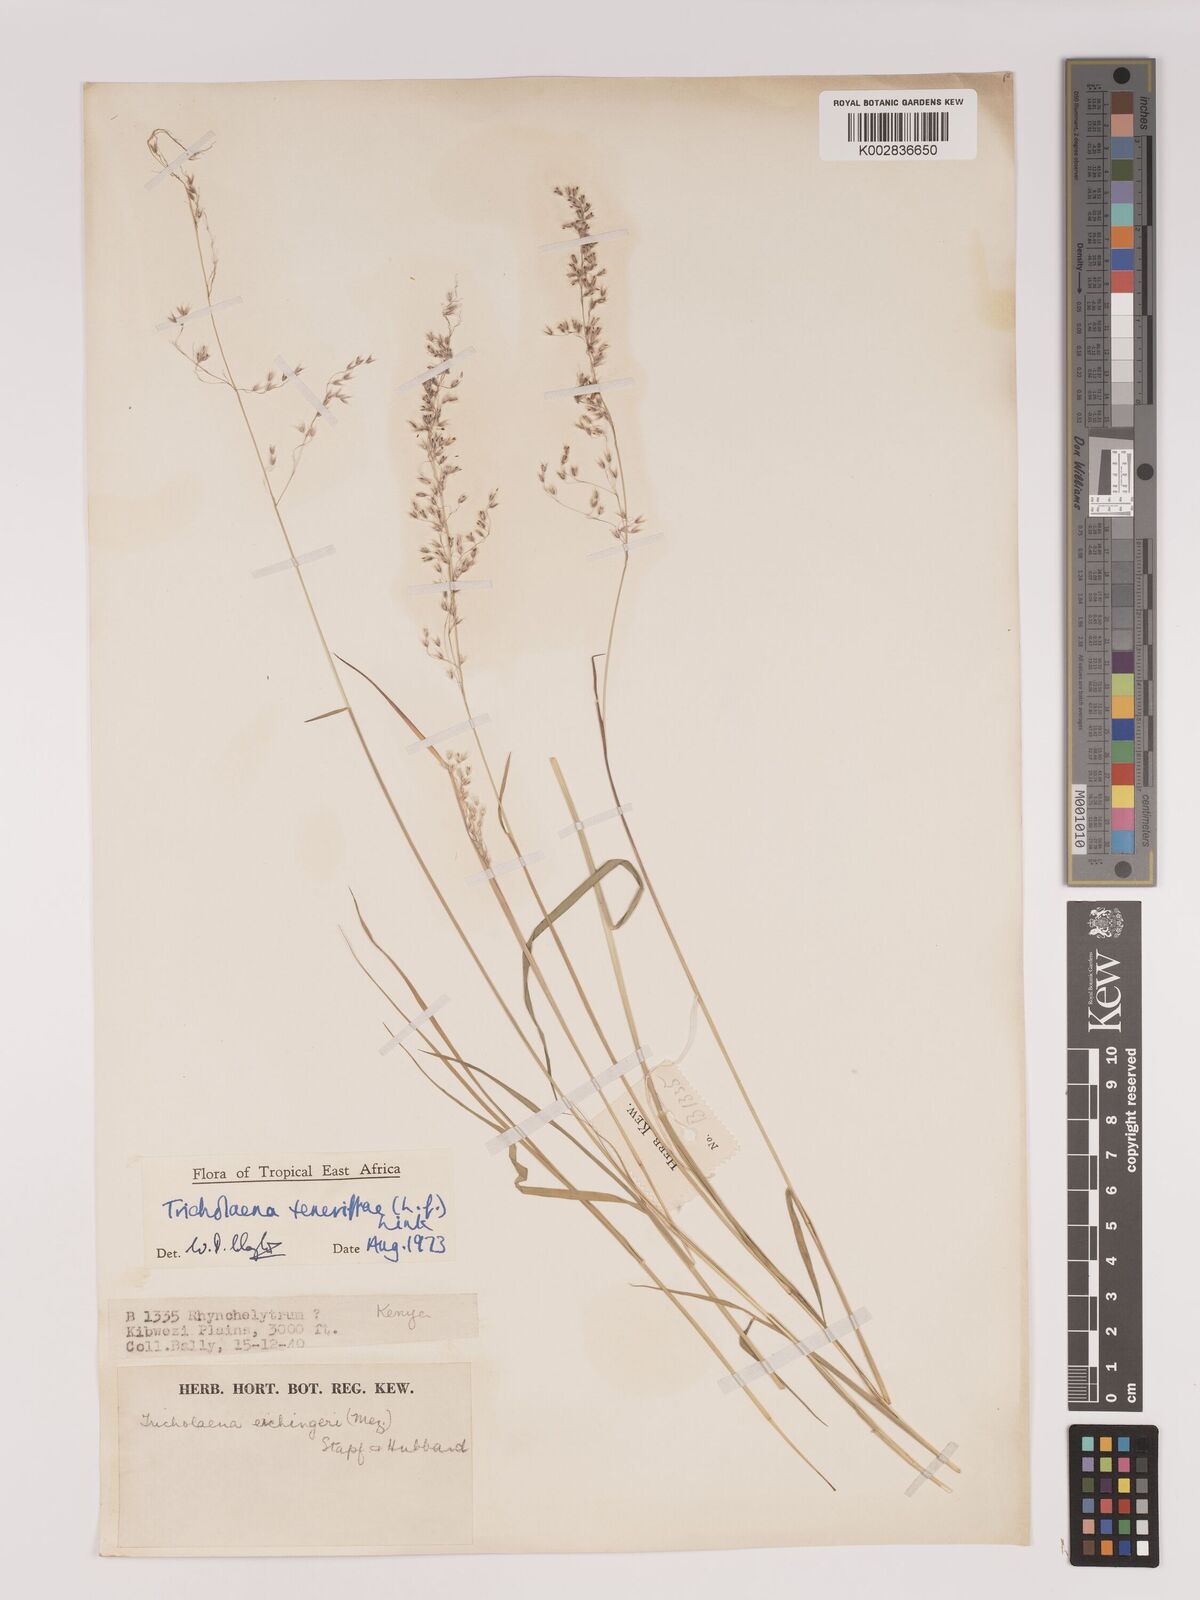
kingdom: Plantae
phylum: Tracheophyta
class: Liliopsida
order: Poales
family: Poaceae
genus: Tricholaena
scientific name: Tricholaena teneriffae
